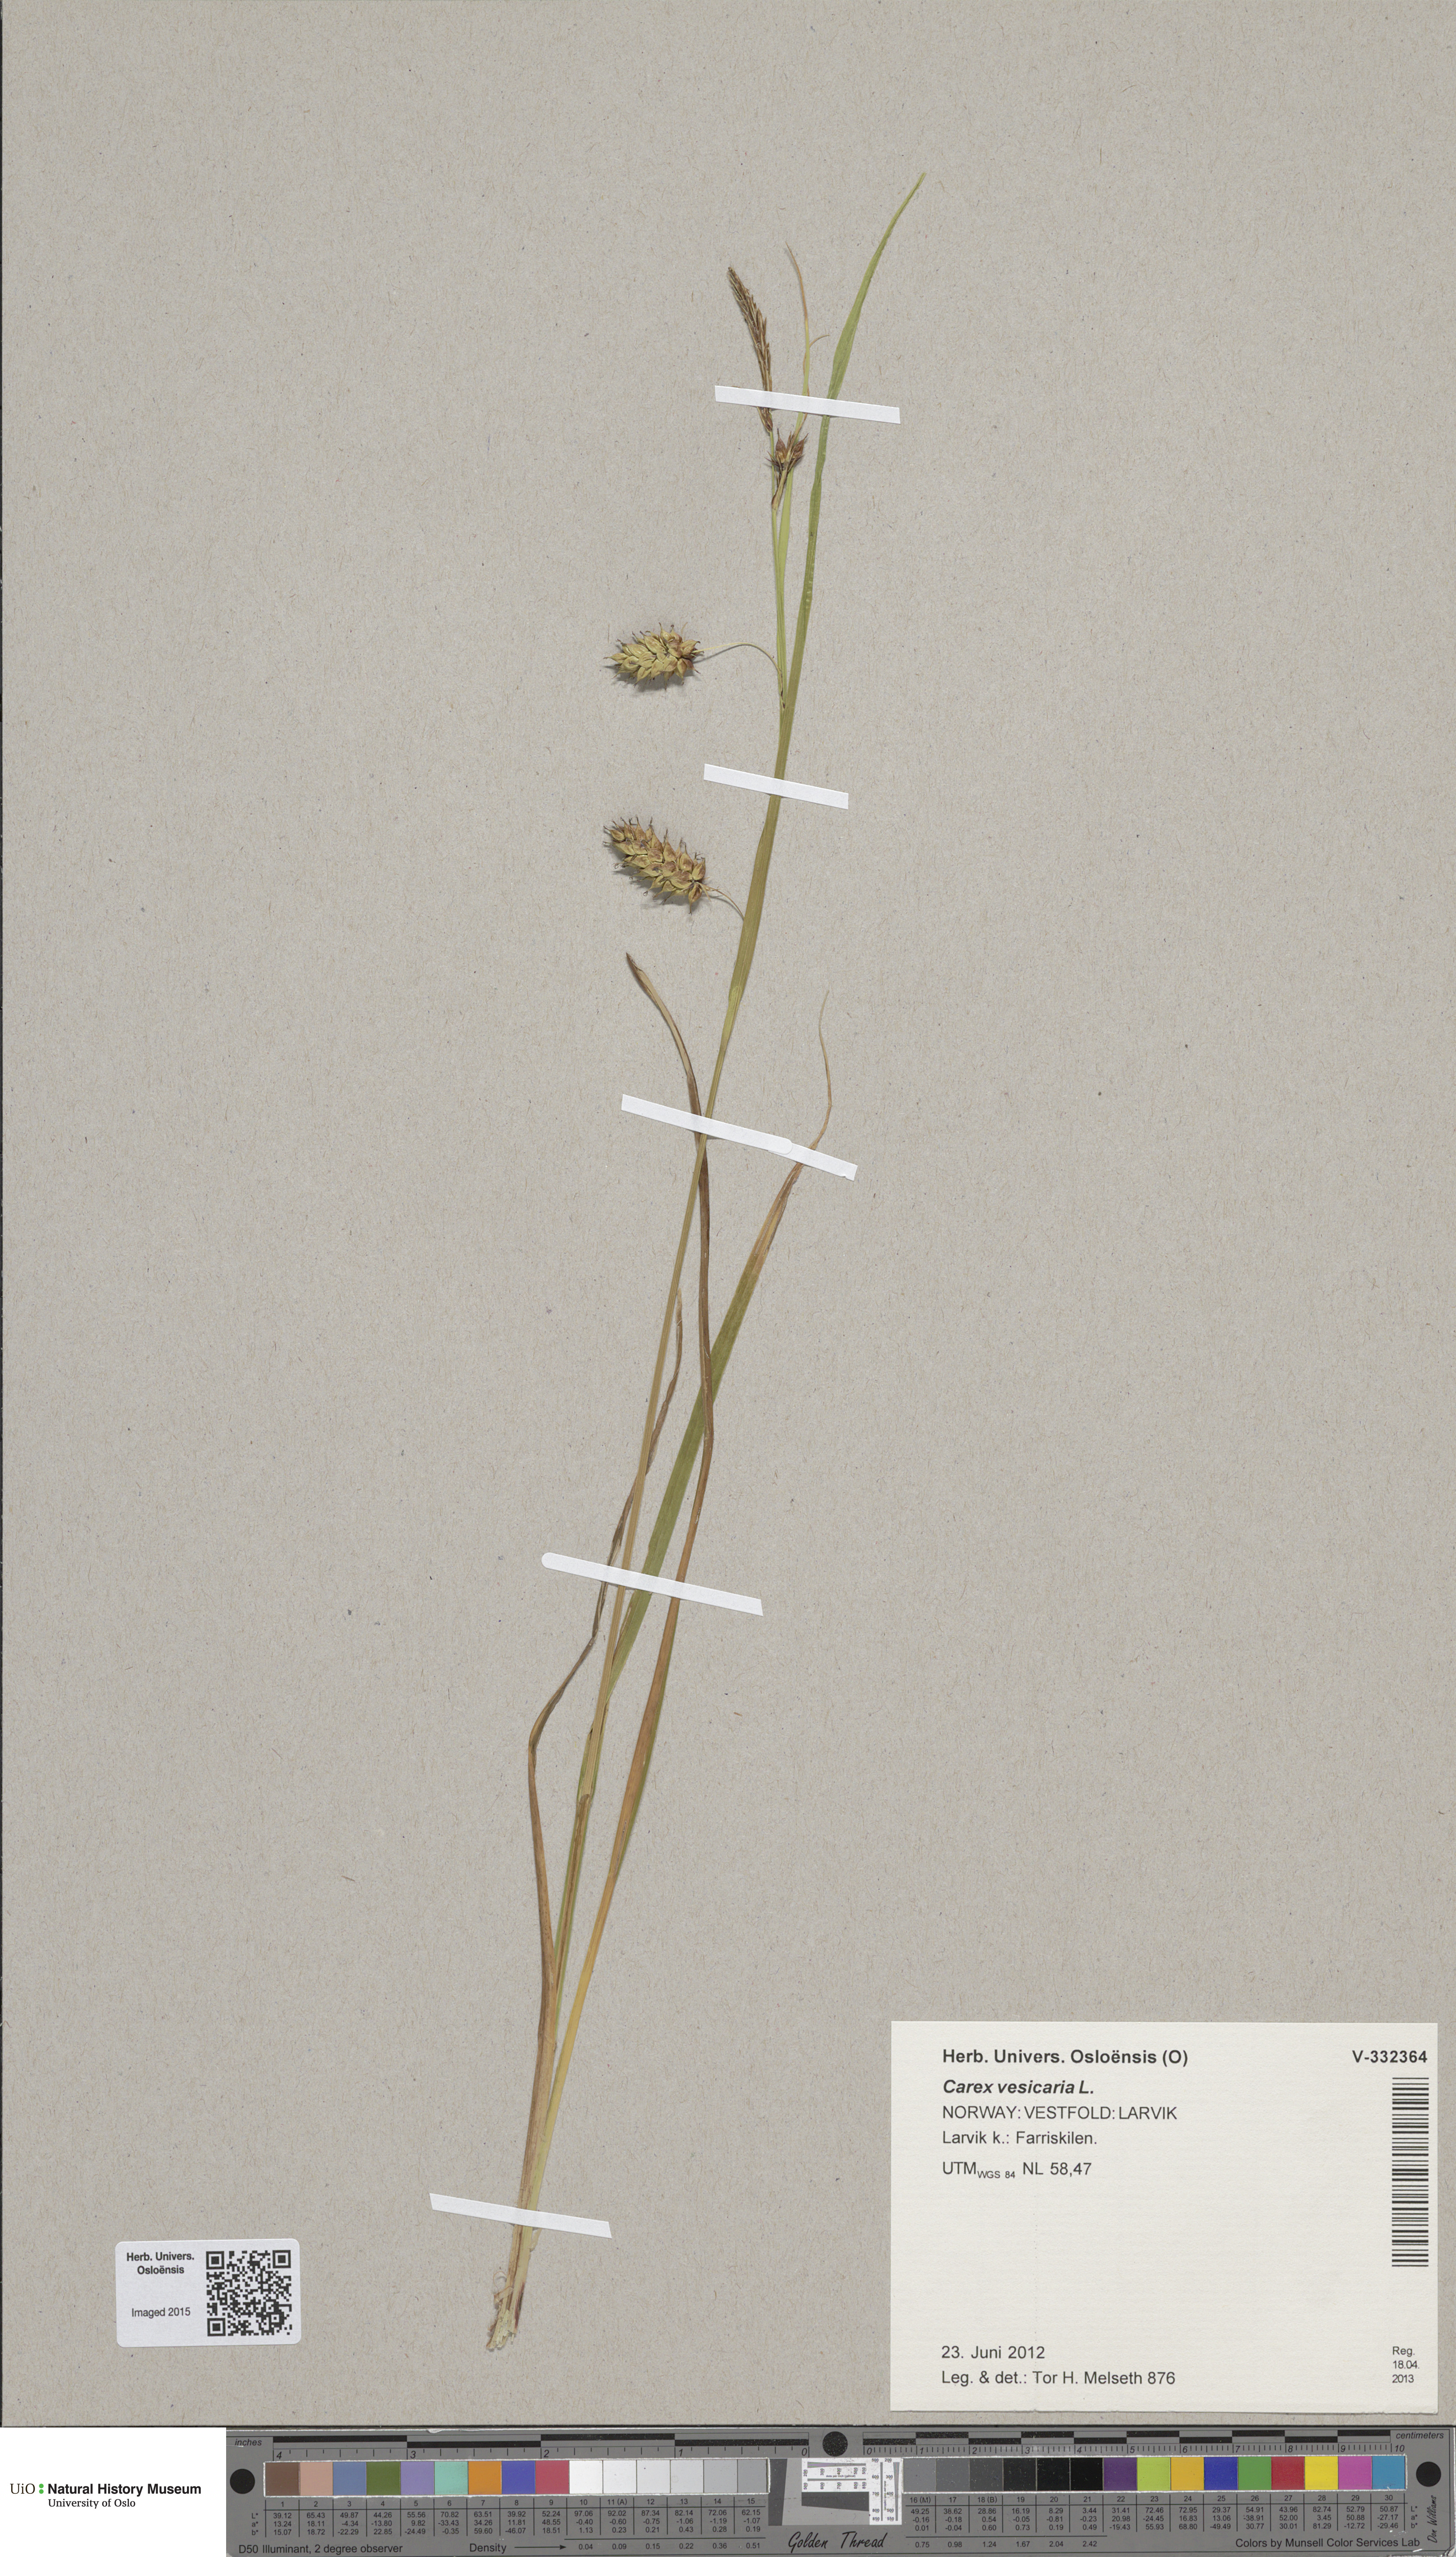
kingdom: Plantae
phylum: Tracheophyta
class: Liliopsida
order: Poales
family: Cyperaceae
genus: Carex
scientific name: Carex vesicaria
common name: Bladder-sedge
